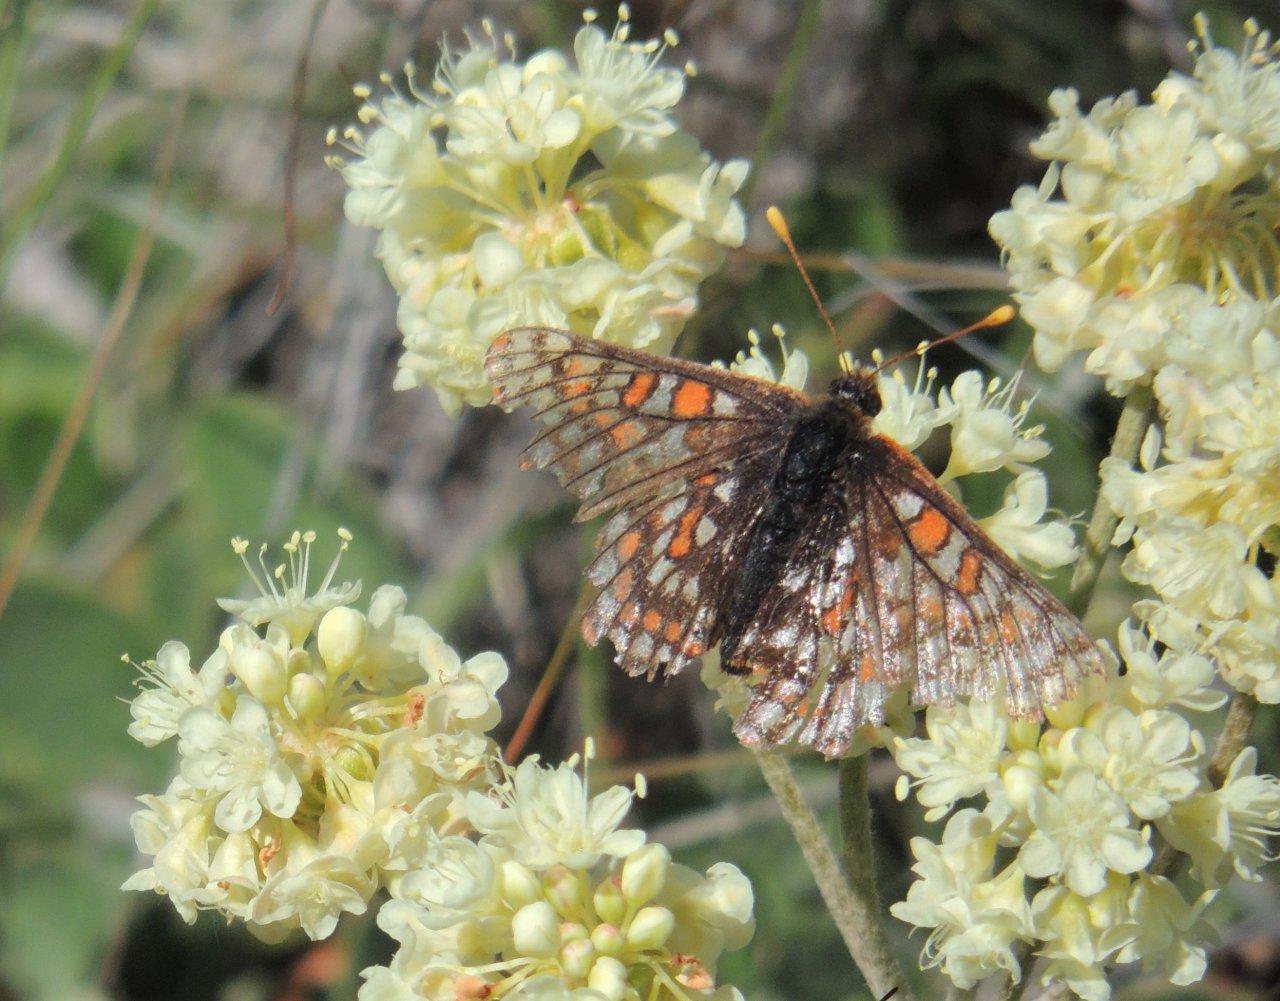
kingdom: Animalia
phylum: Arthropoda
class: Insecta
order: Lepidoptera
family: Nymphalidae
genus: Occidryas
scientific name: Occidryas anicia
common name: Anicia Checkerspot
